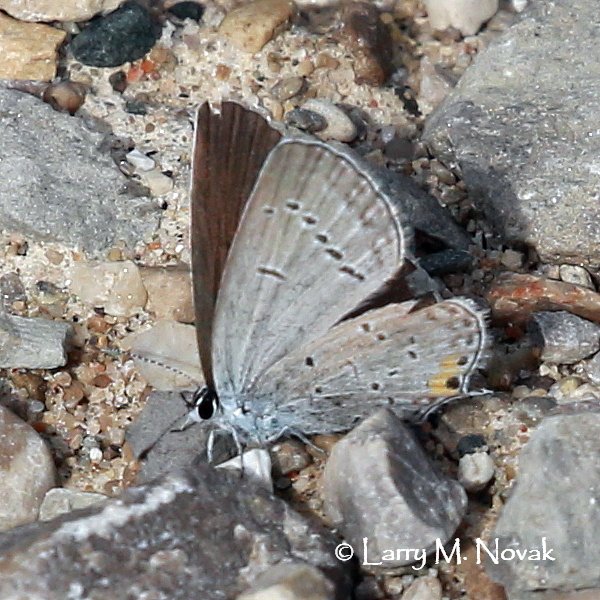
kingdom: Animalia
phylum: Arthropoda
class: Insecta
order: Lepidoptera
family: Lycaenidae
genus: Elkalyce
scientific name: Elkalyce comyntas
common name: Eastern Tailed-Blue
